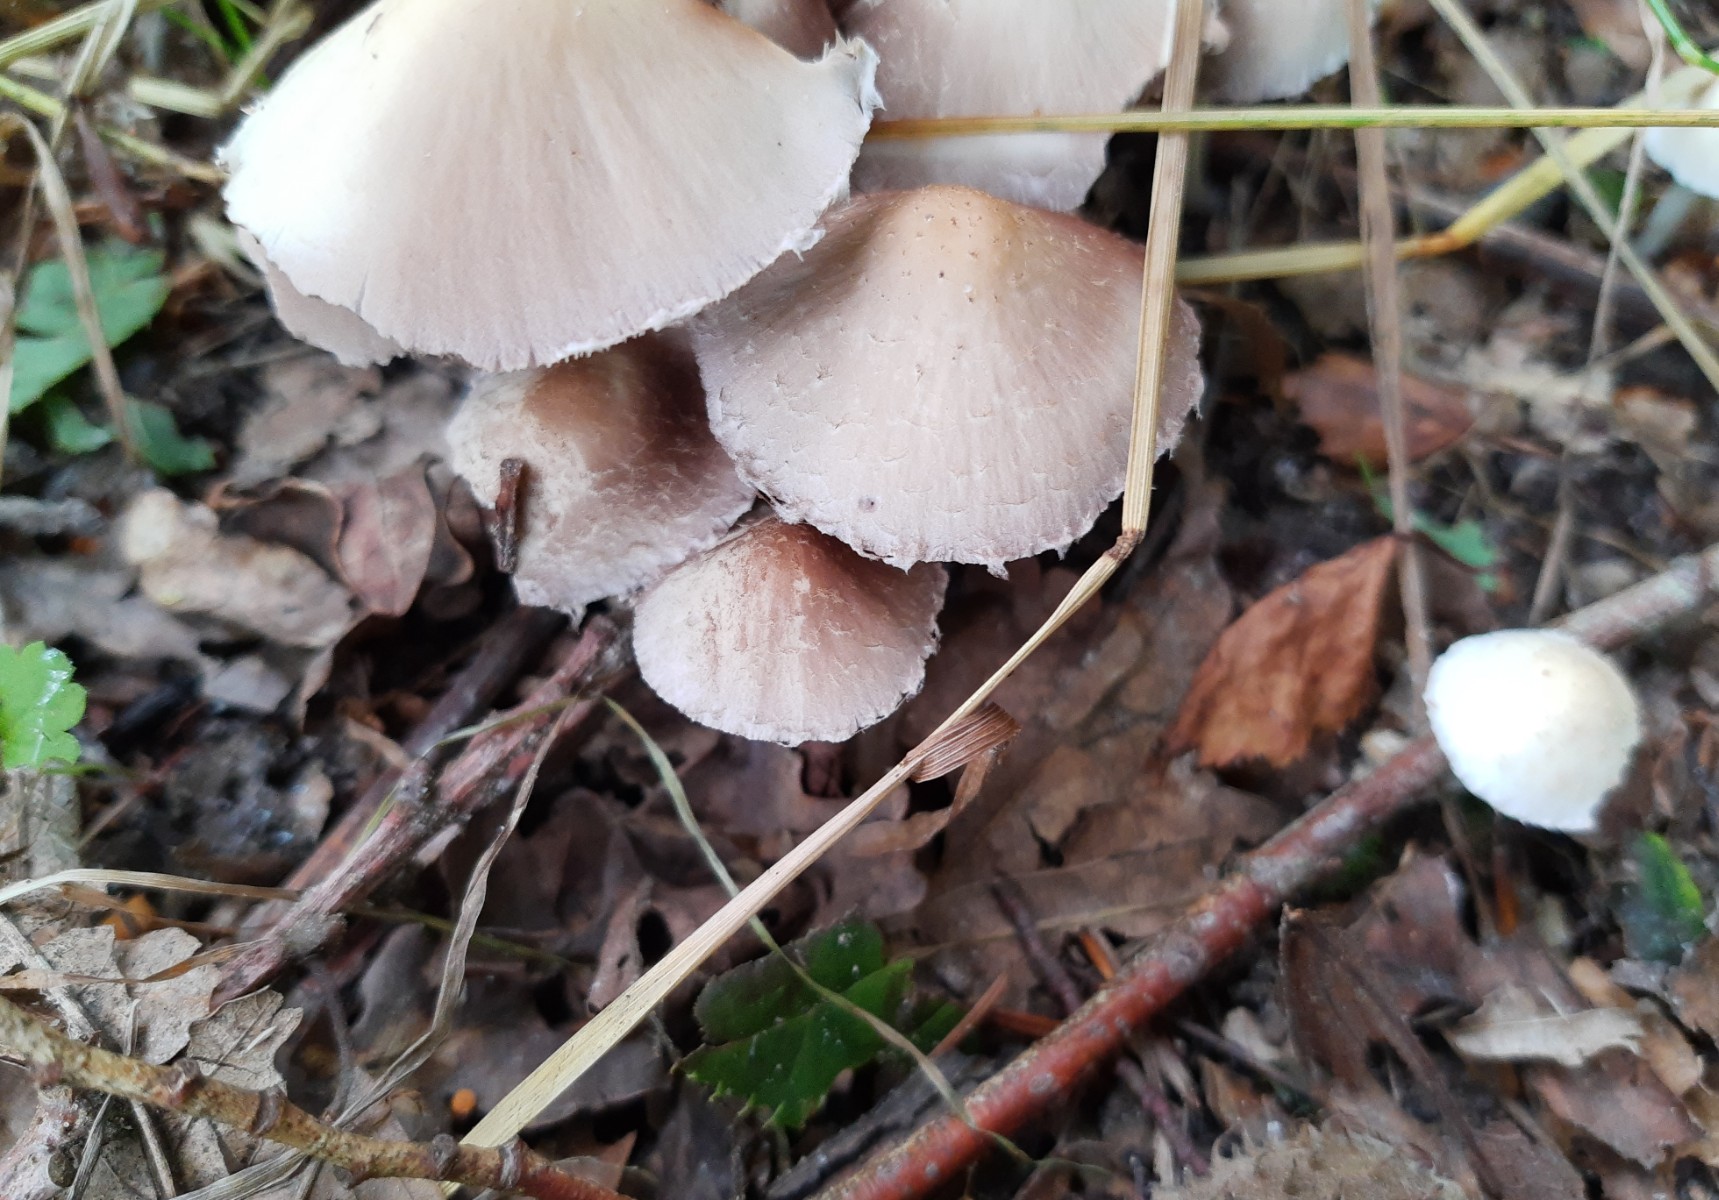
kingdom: Fungi
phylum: Basidiomycota
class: Agaricomycetes
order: Agaricales
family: Psathyrellaceae
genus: Candolleomyces
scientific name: Candolleomyces candolleanus
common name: Candolles mørkhat
